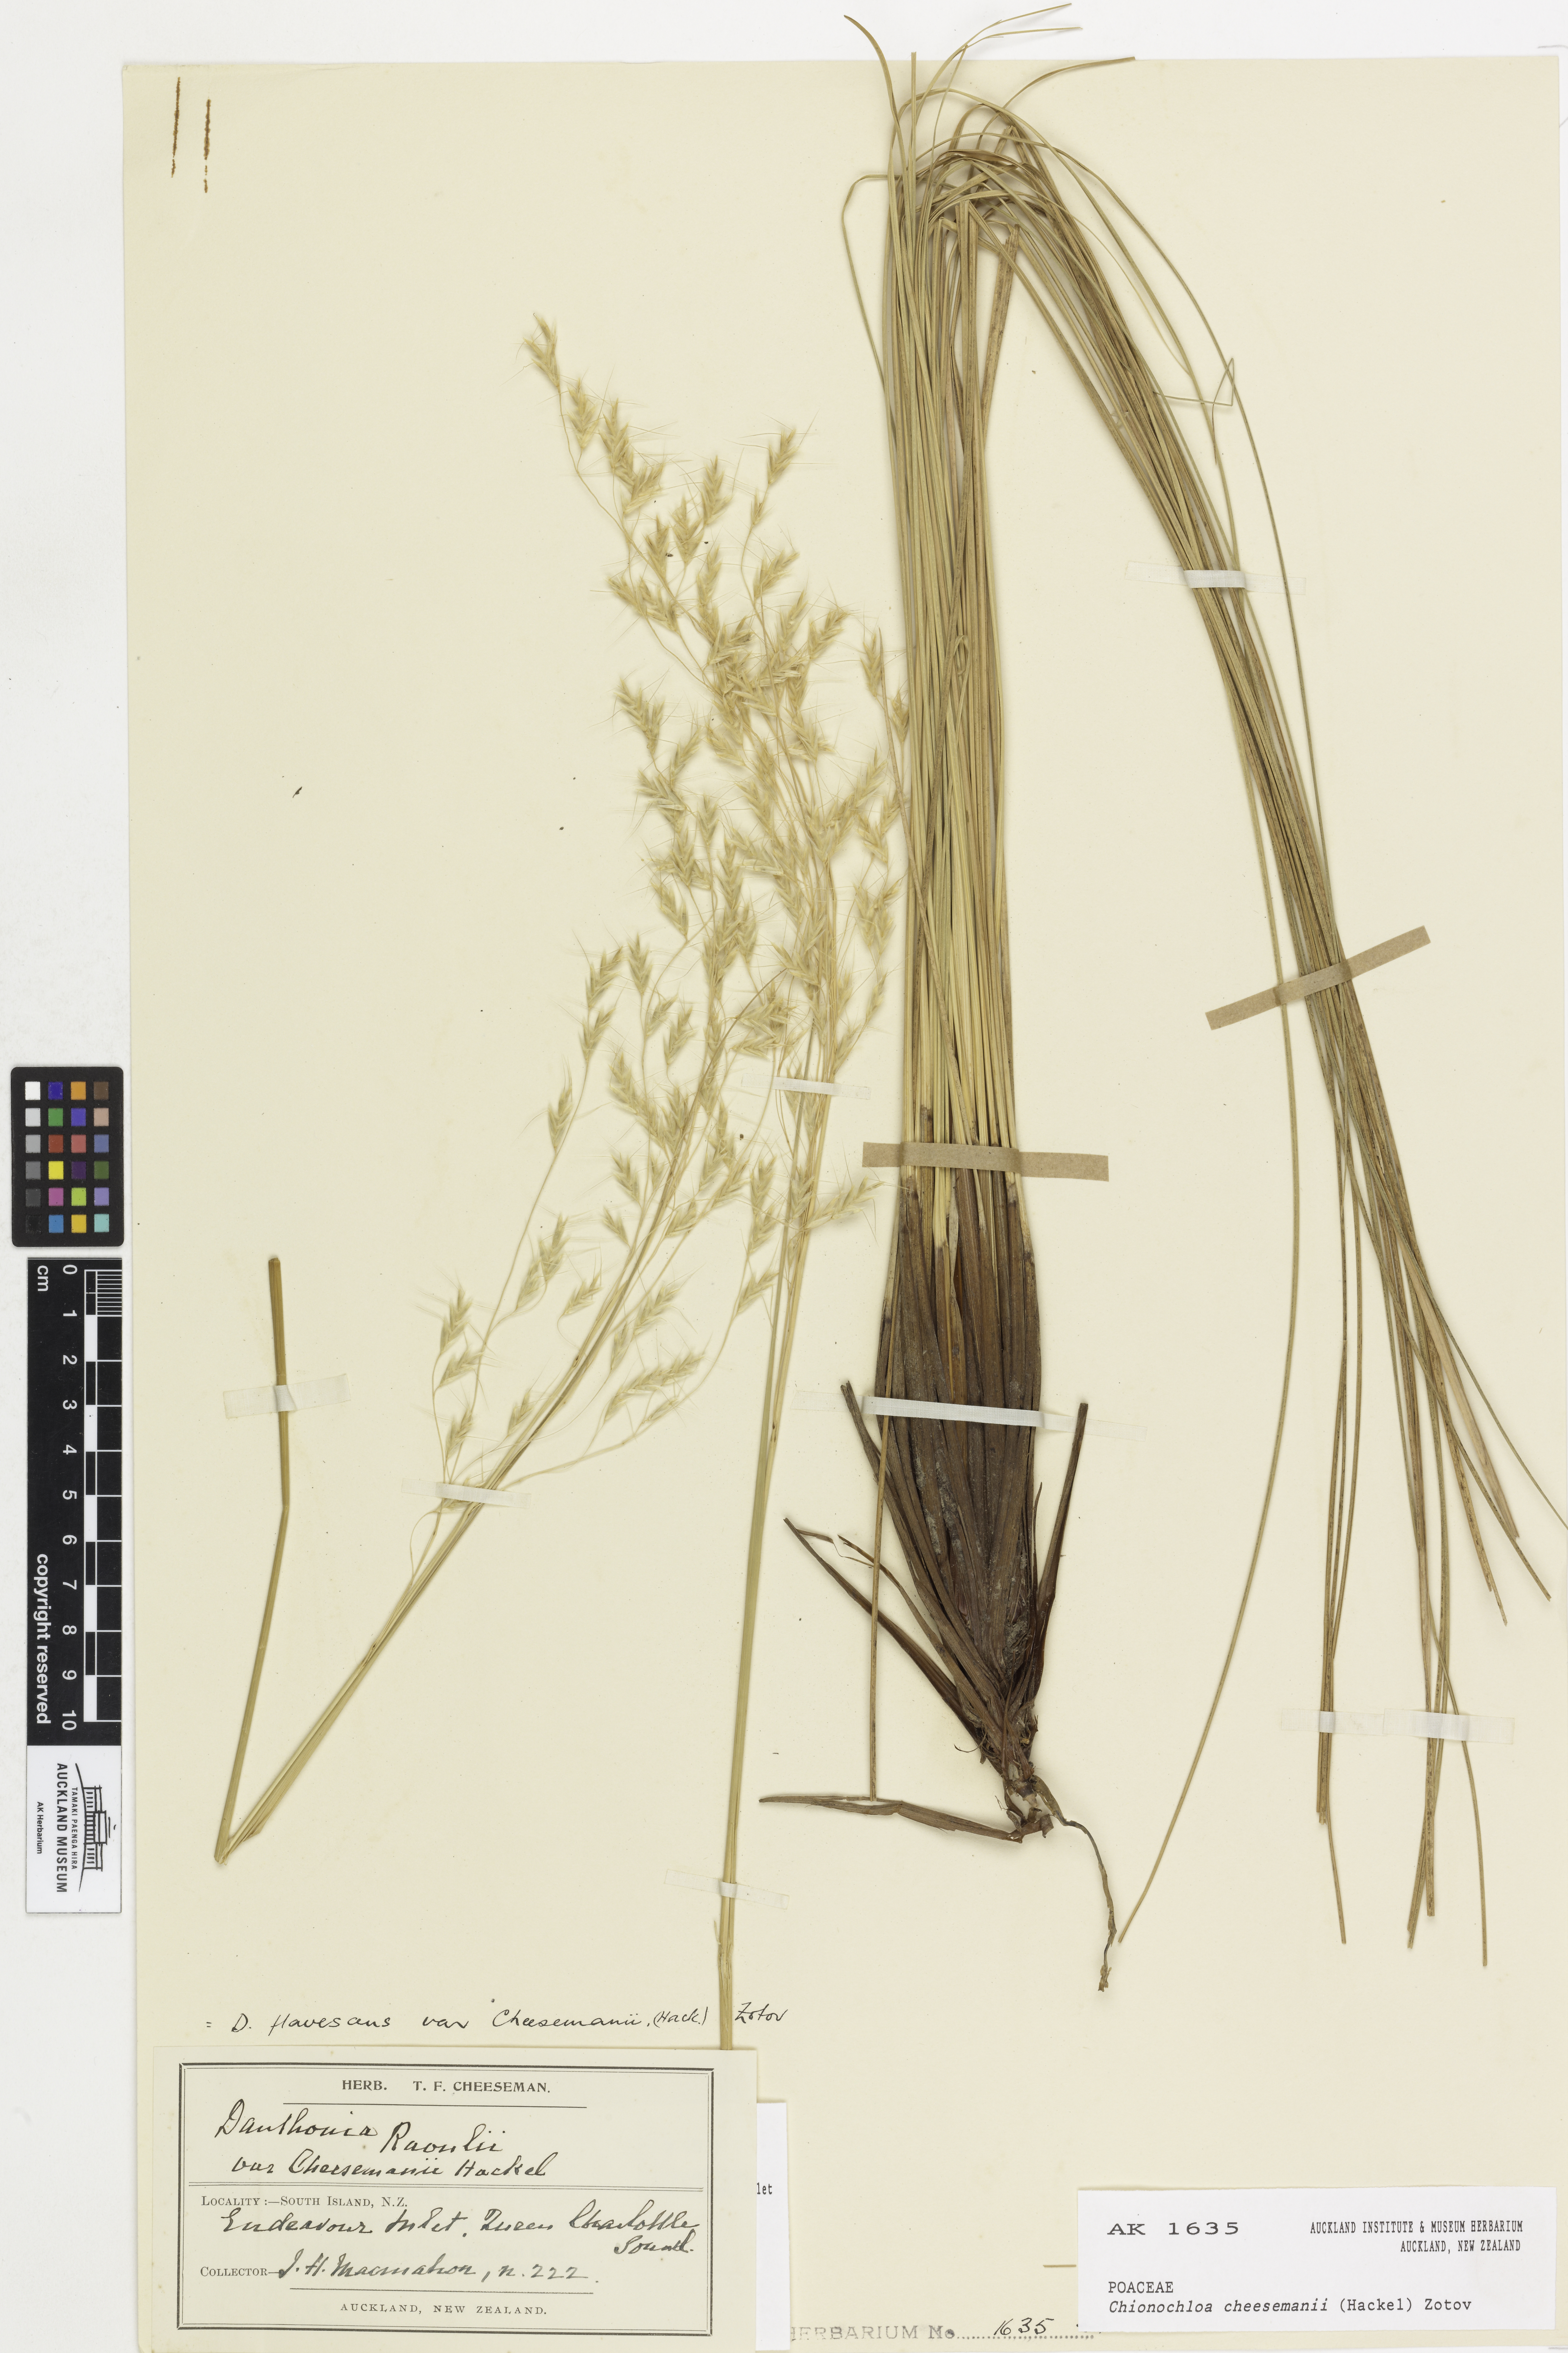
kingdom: Plantae
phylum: Tracheophyta
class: Liliopsida
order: Poales
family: Poaceae
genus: Chionochloa
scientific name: Chionochloa cheesemanii
